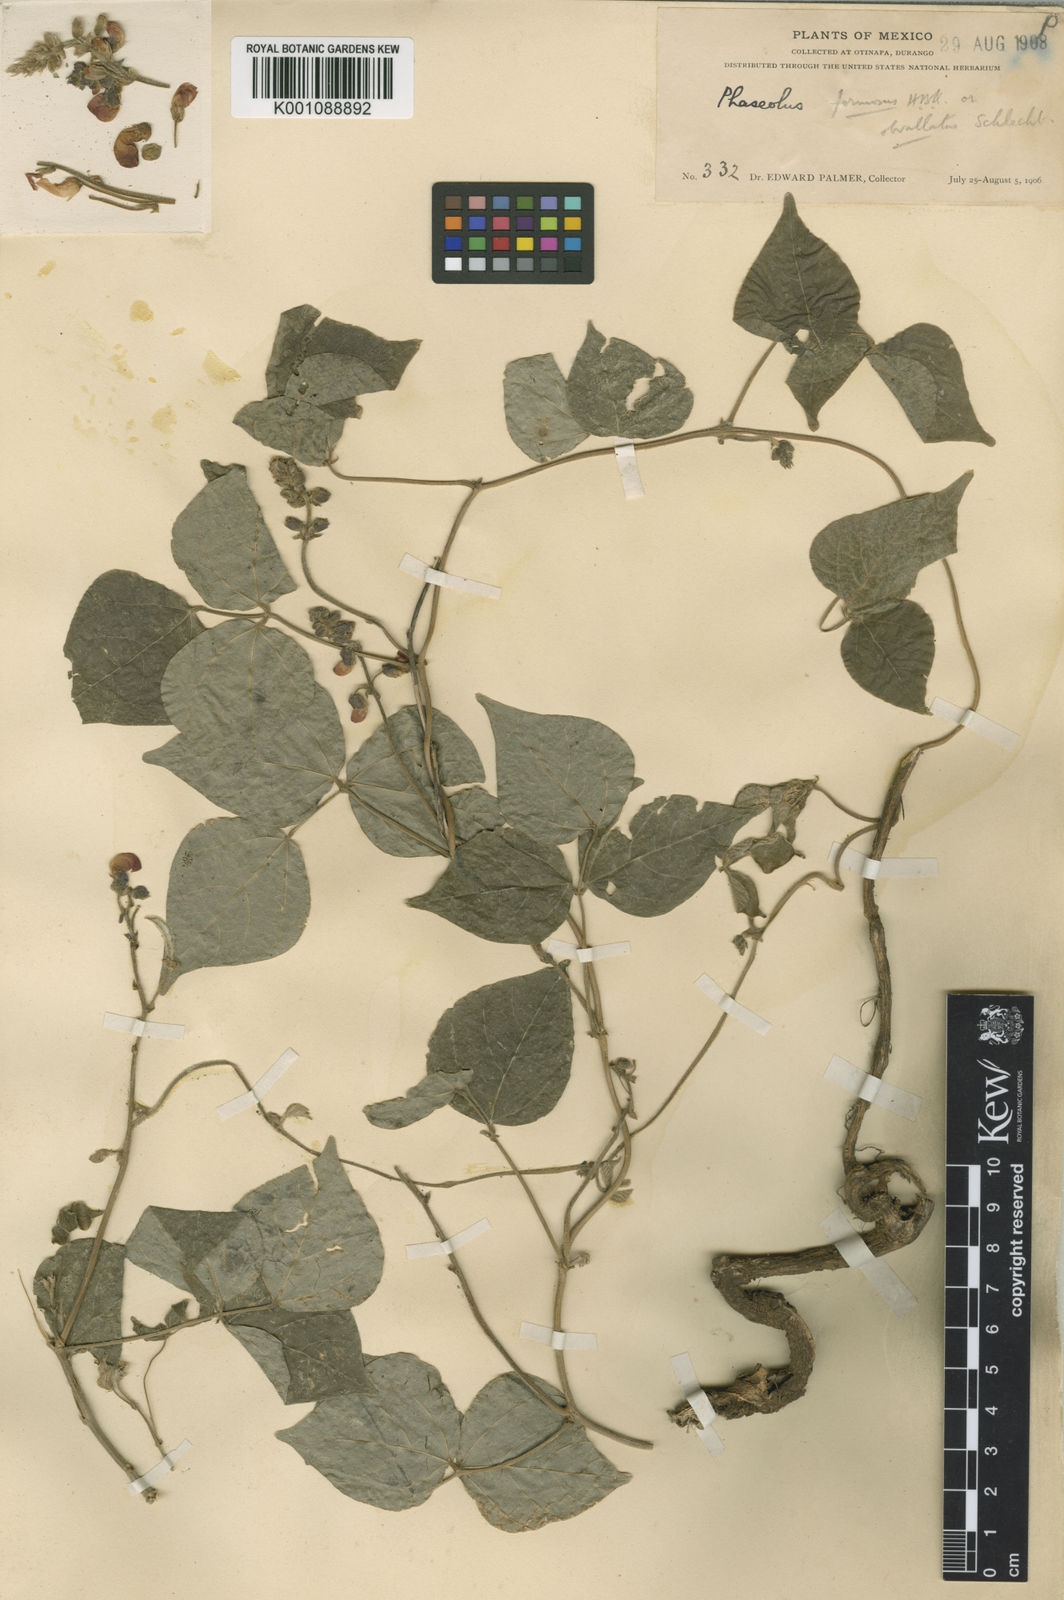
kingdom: Plantae
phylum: Tracheophyta
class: Magnoliopsida
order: Fabales
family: Fabaceae
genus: Phaseolus
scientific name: Phaseolus coccineus
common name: Runner bean
